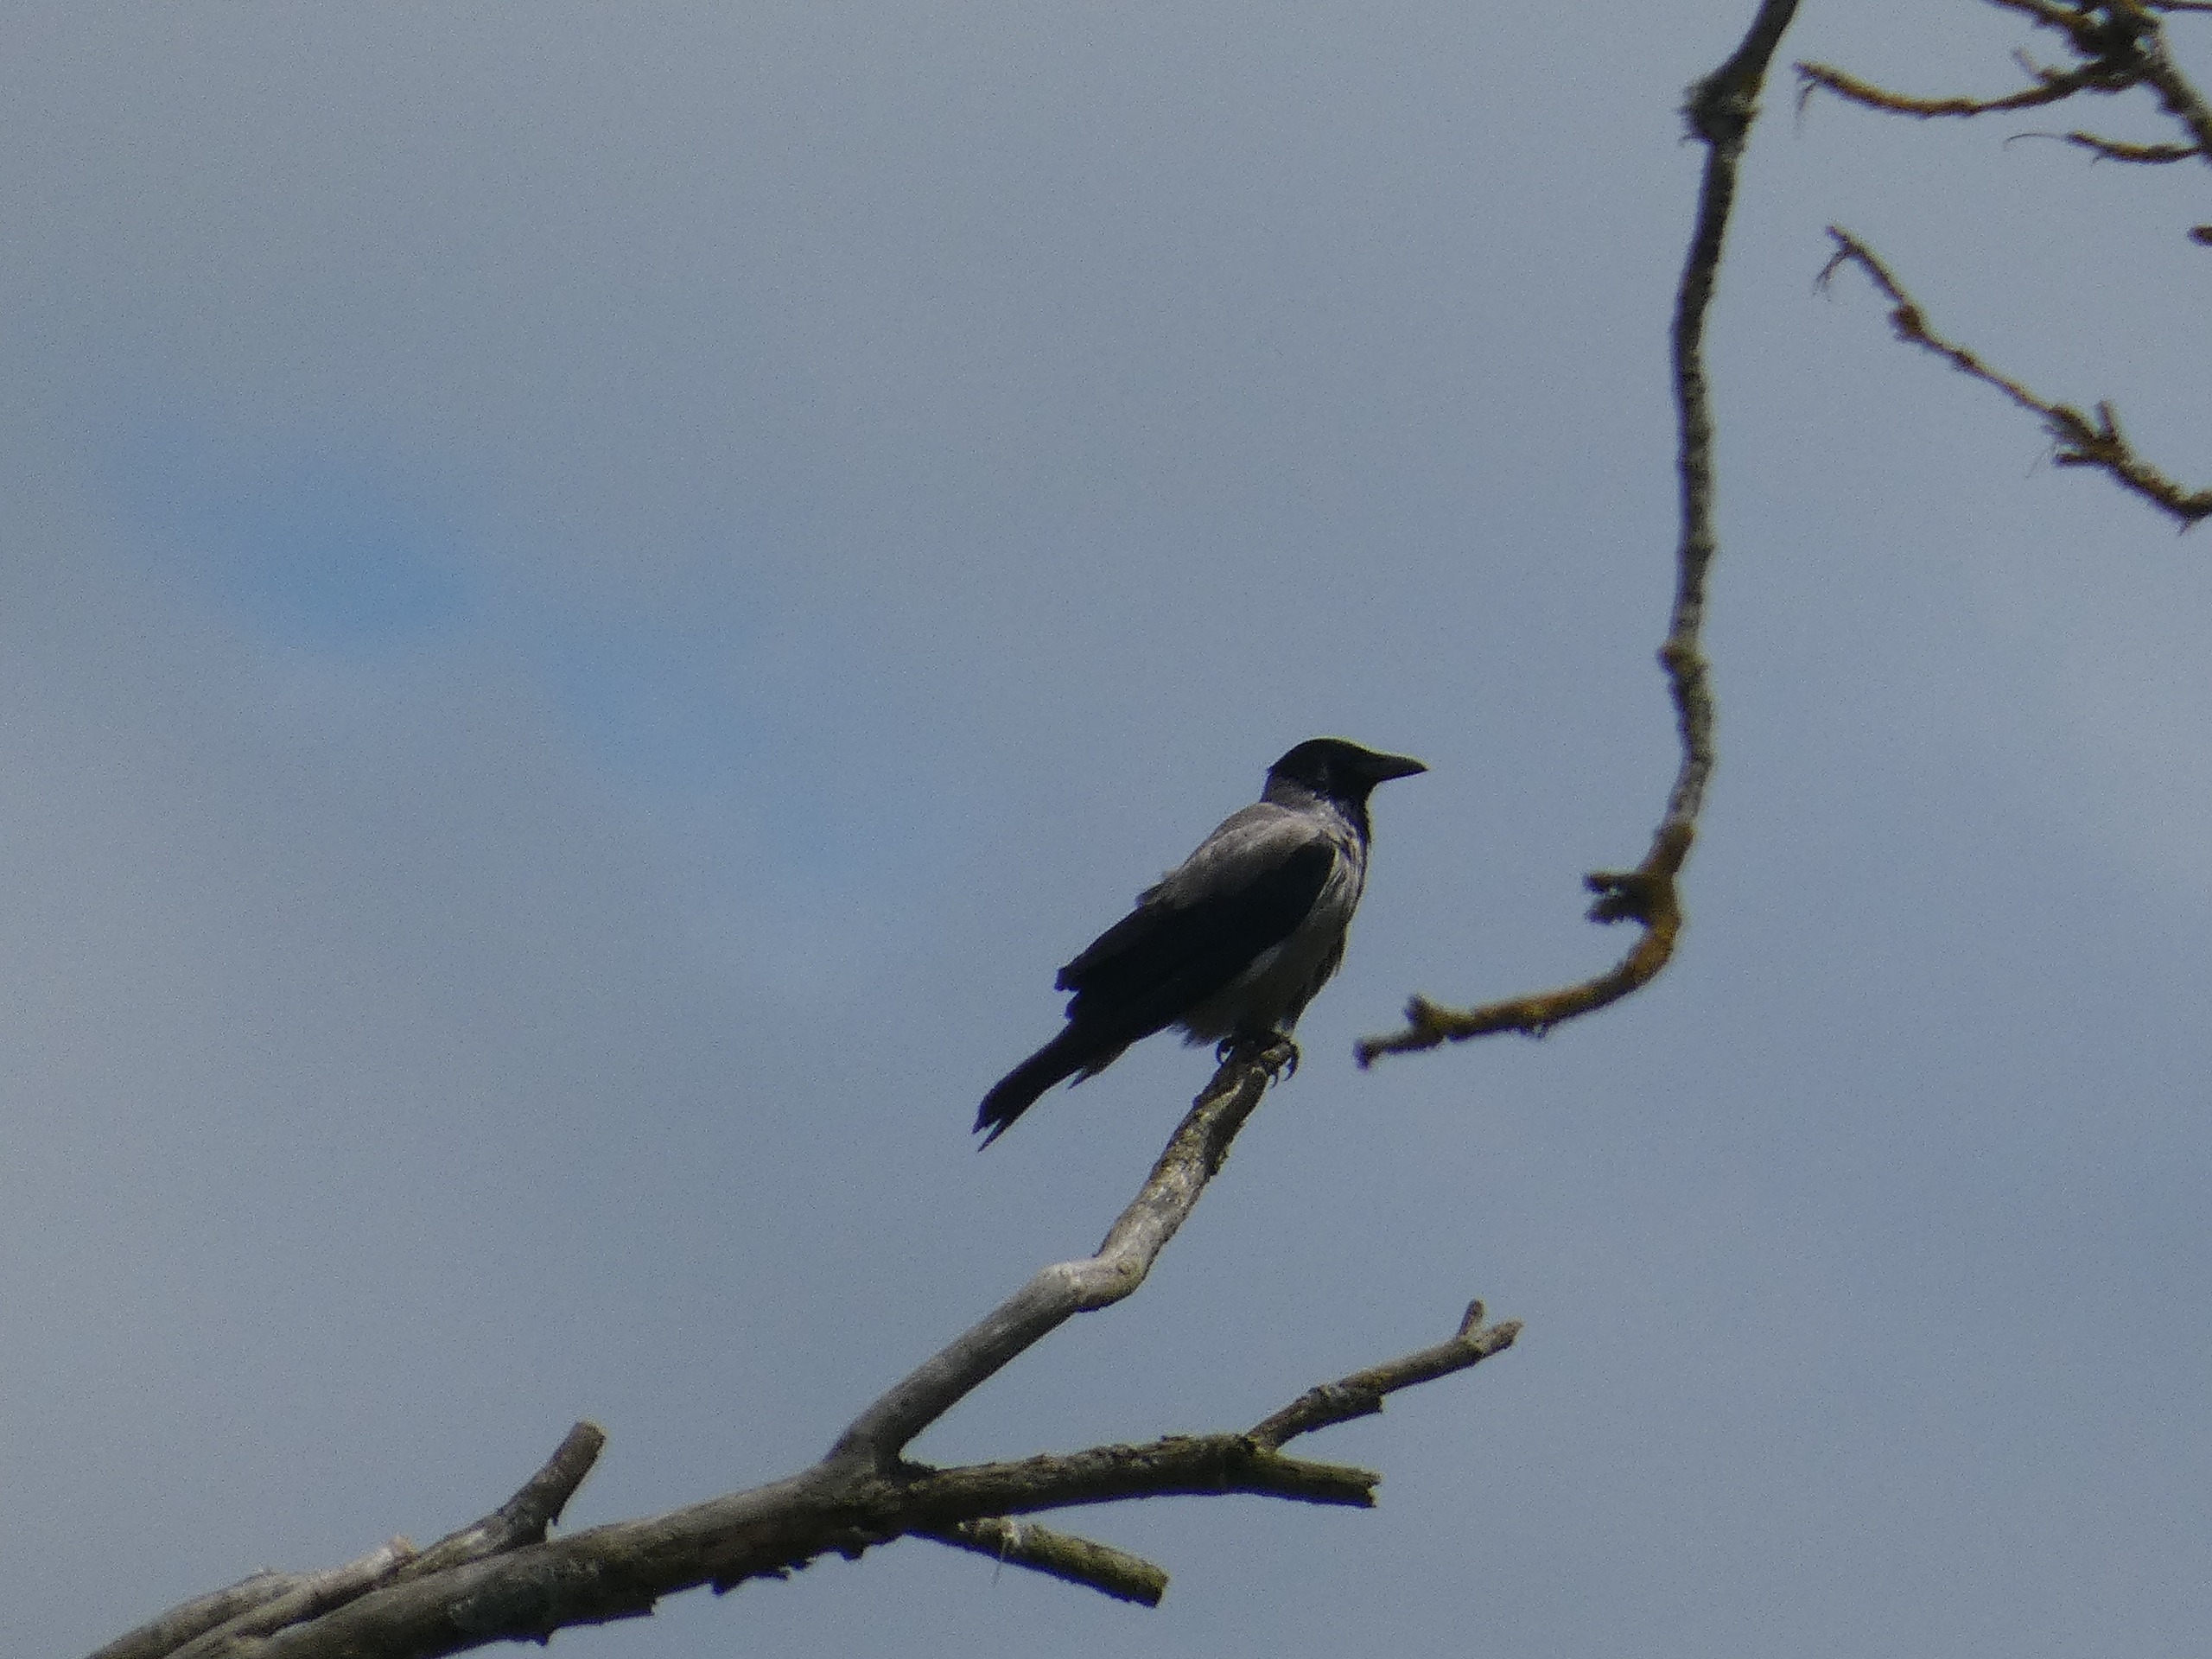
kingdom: Animalia
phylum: Chordata
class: Aves
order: Passeriformes
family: Corvidae
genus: Corvus
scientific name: Corvus cornix
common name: Gråkrage
